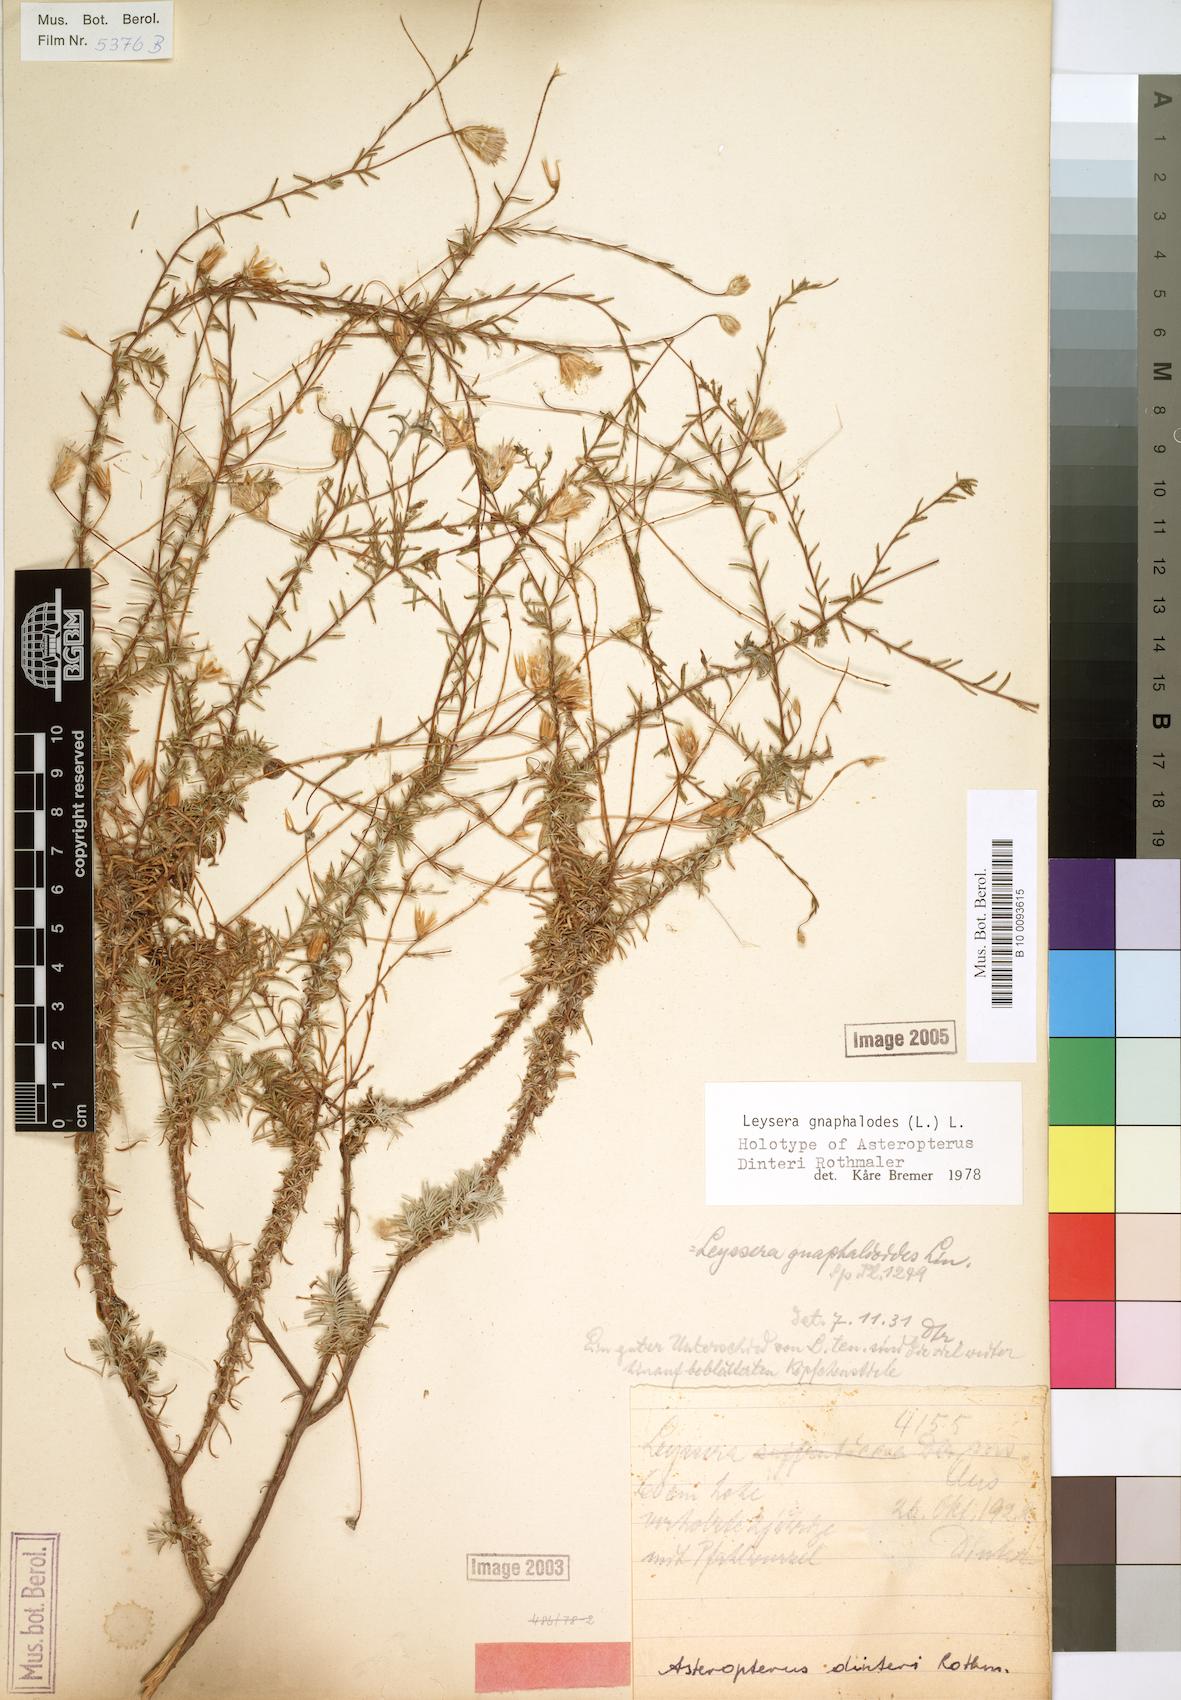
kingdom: Plantae
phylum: Tracheophyta
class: Magnoliopsida
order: Asterales
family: Asteraceae
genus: Leysera
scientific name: Leysera gnaphalodes
